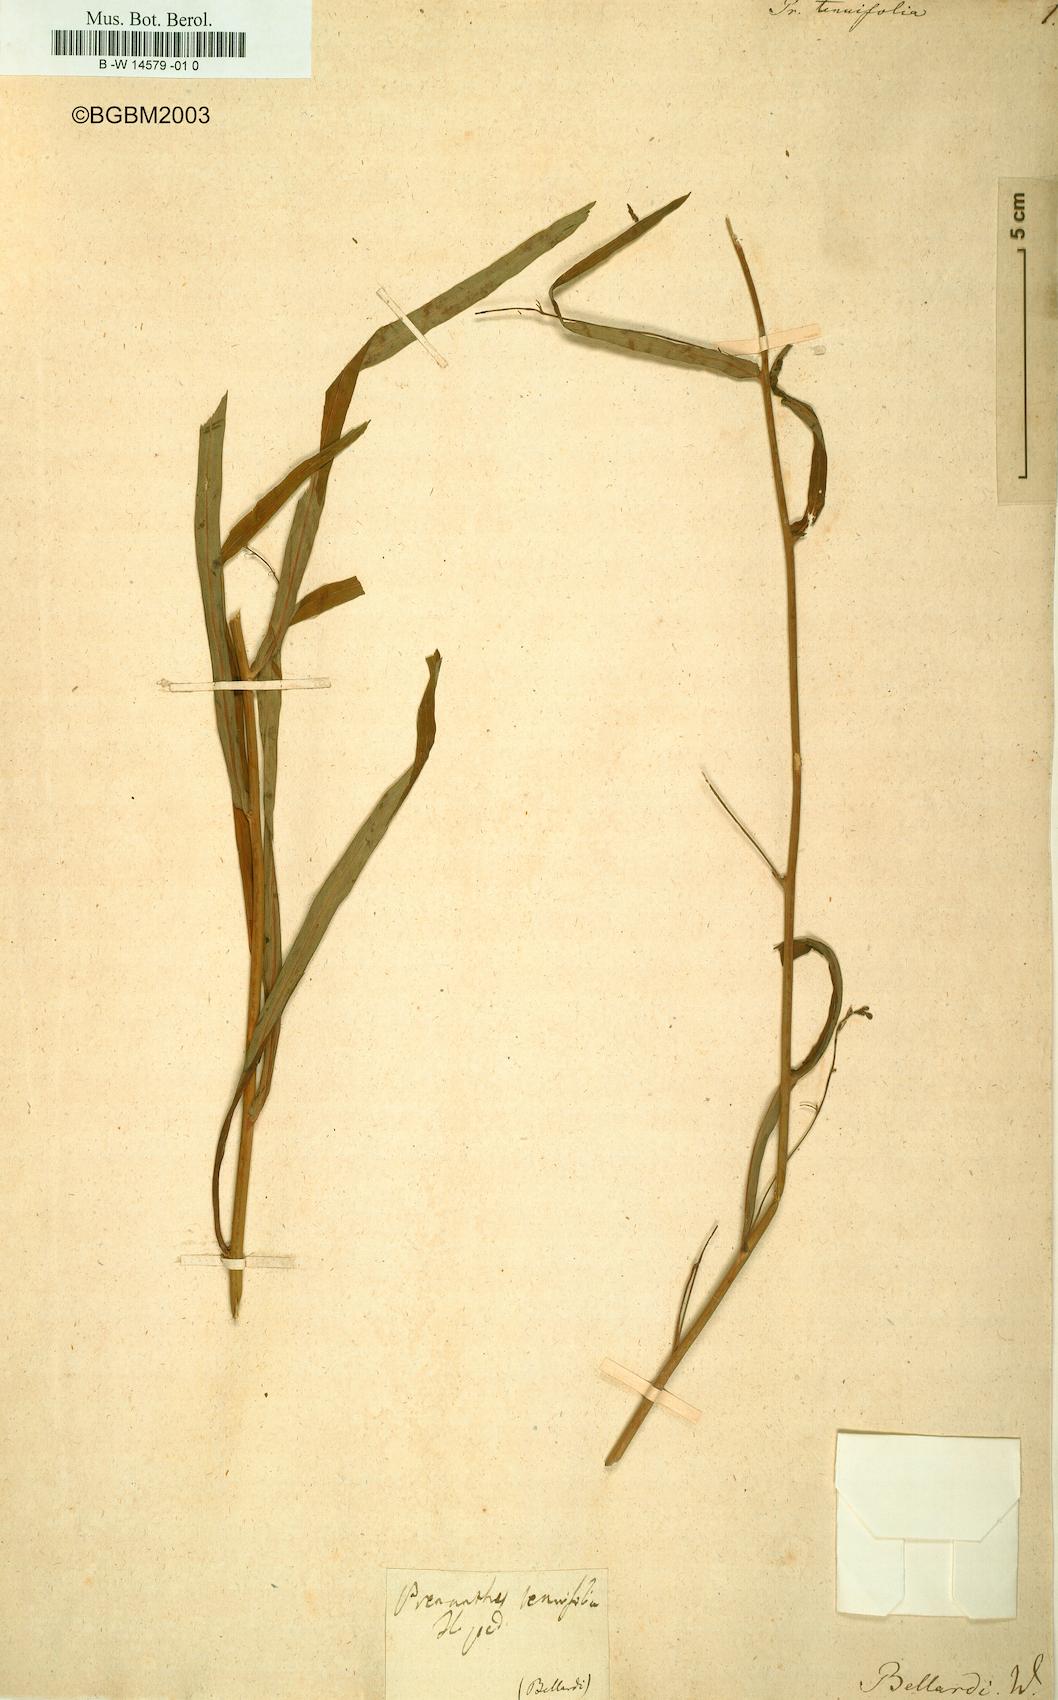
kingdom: Plantae
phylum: Tracheophyta
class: Magnoliopsida
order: Asterales
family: Asteraceae
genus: Prenanthes
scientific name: Prenanthes purpurea
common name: Purple lettuce
